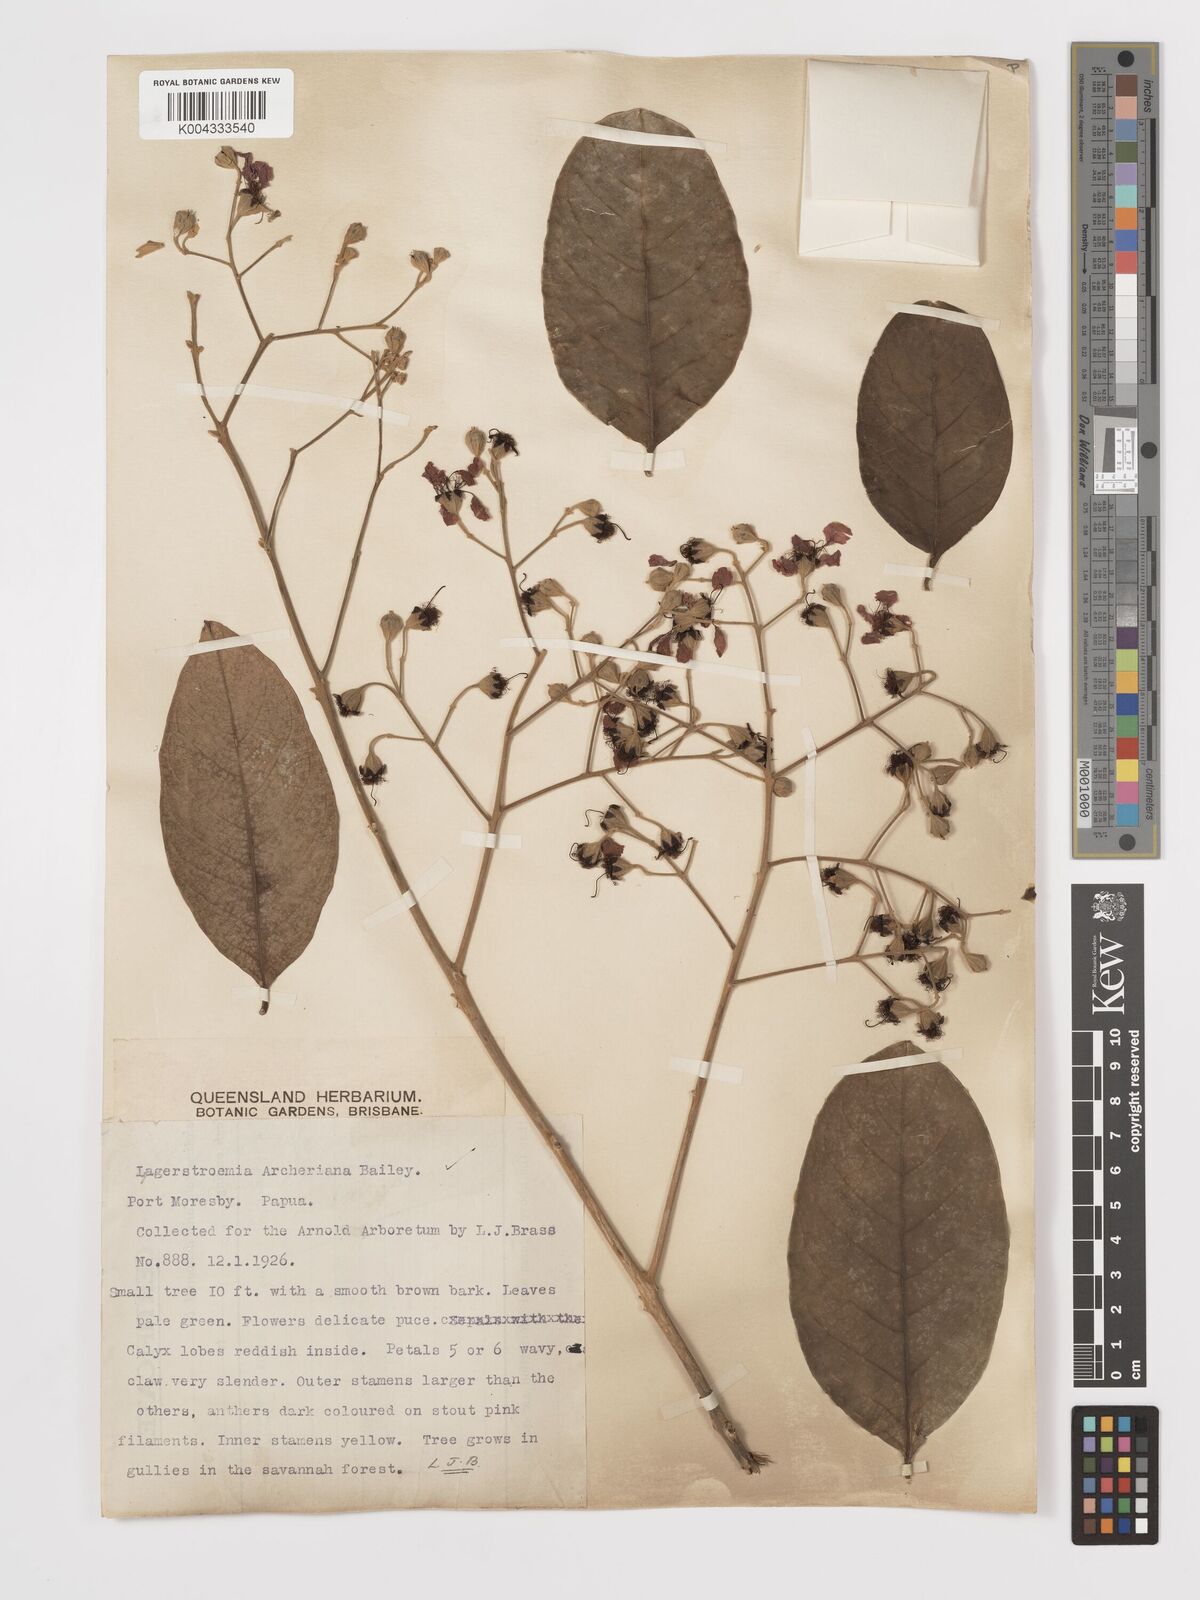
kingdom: Plantae
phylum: Tracheophyta
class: Magnoliopsida
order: Myrtales
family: Lythraceae
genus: Lagerstroemia
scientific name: Lagerstroemia engleriana
